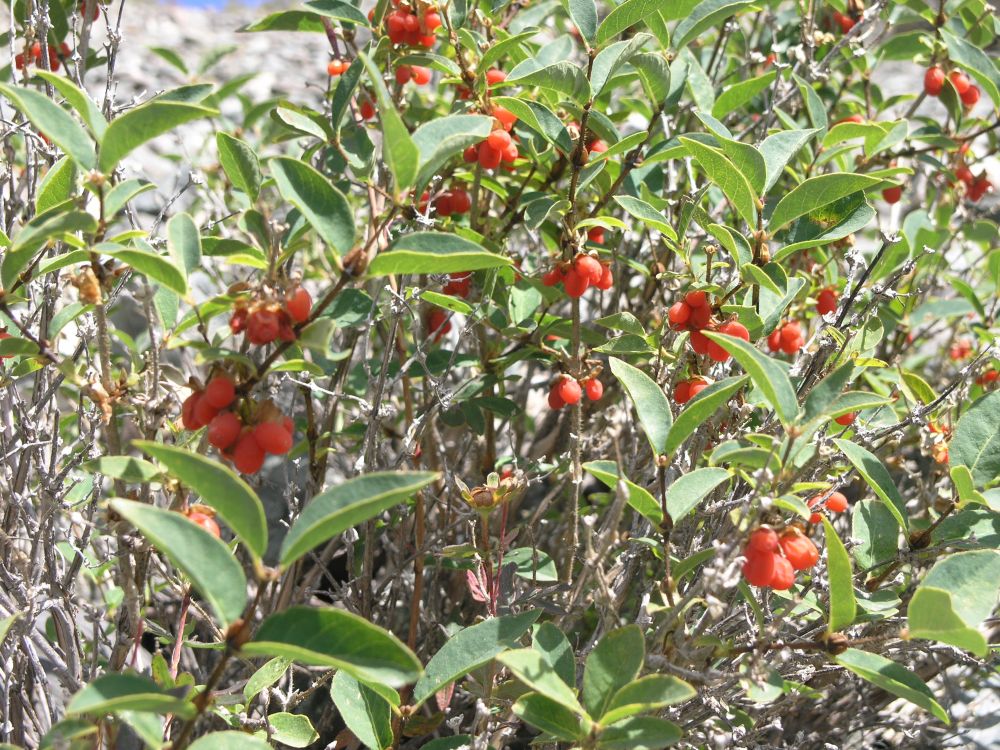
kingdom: Plantae
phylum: Tracheophyta
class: Magnoliopsida
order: Dipsacales
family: Caprifoliaceae
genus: Lonicera
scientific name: Lonicera hispida
